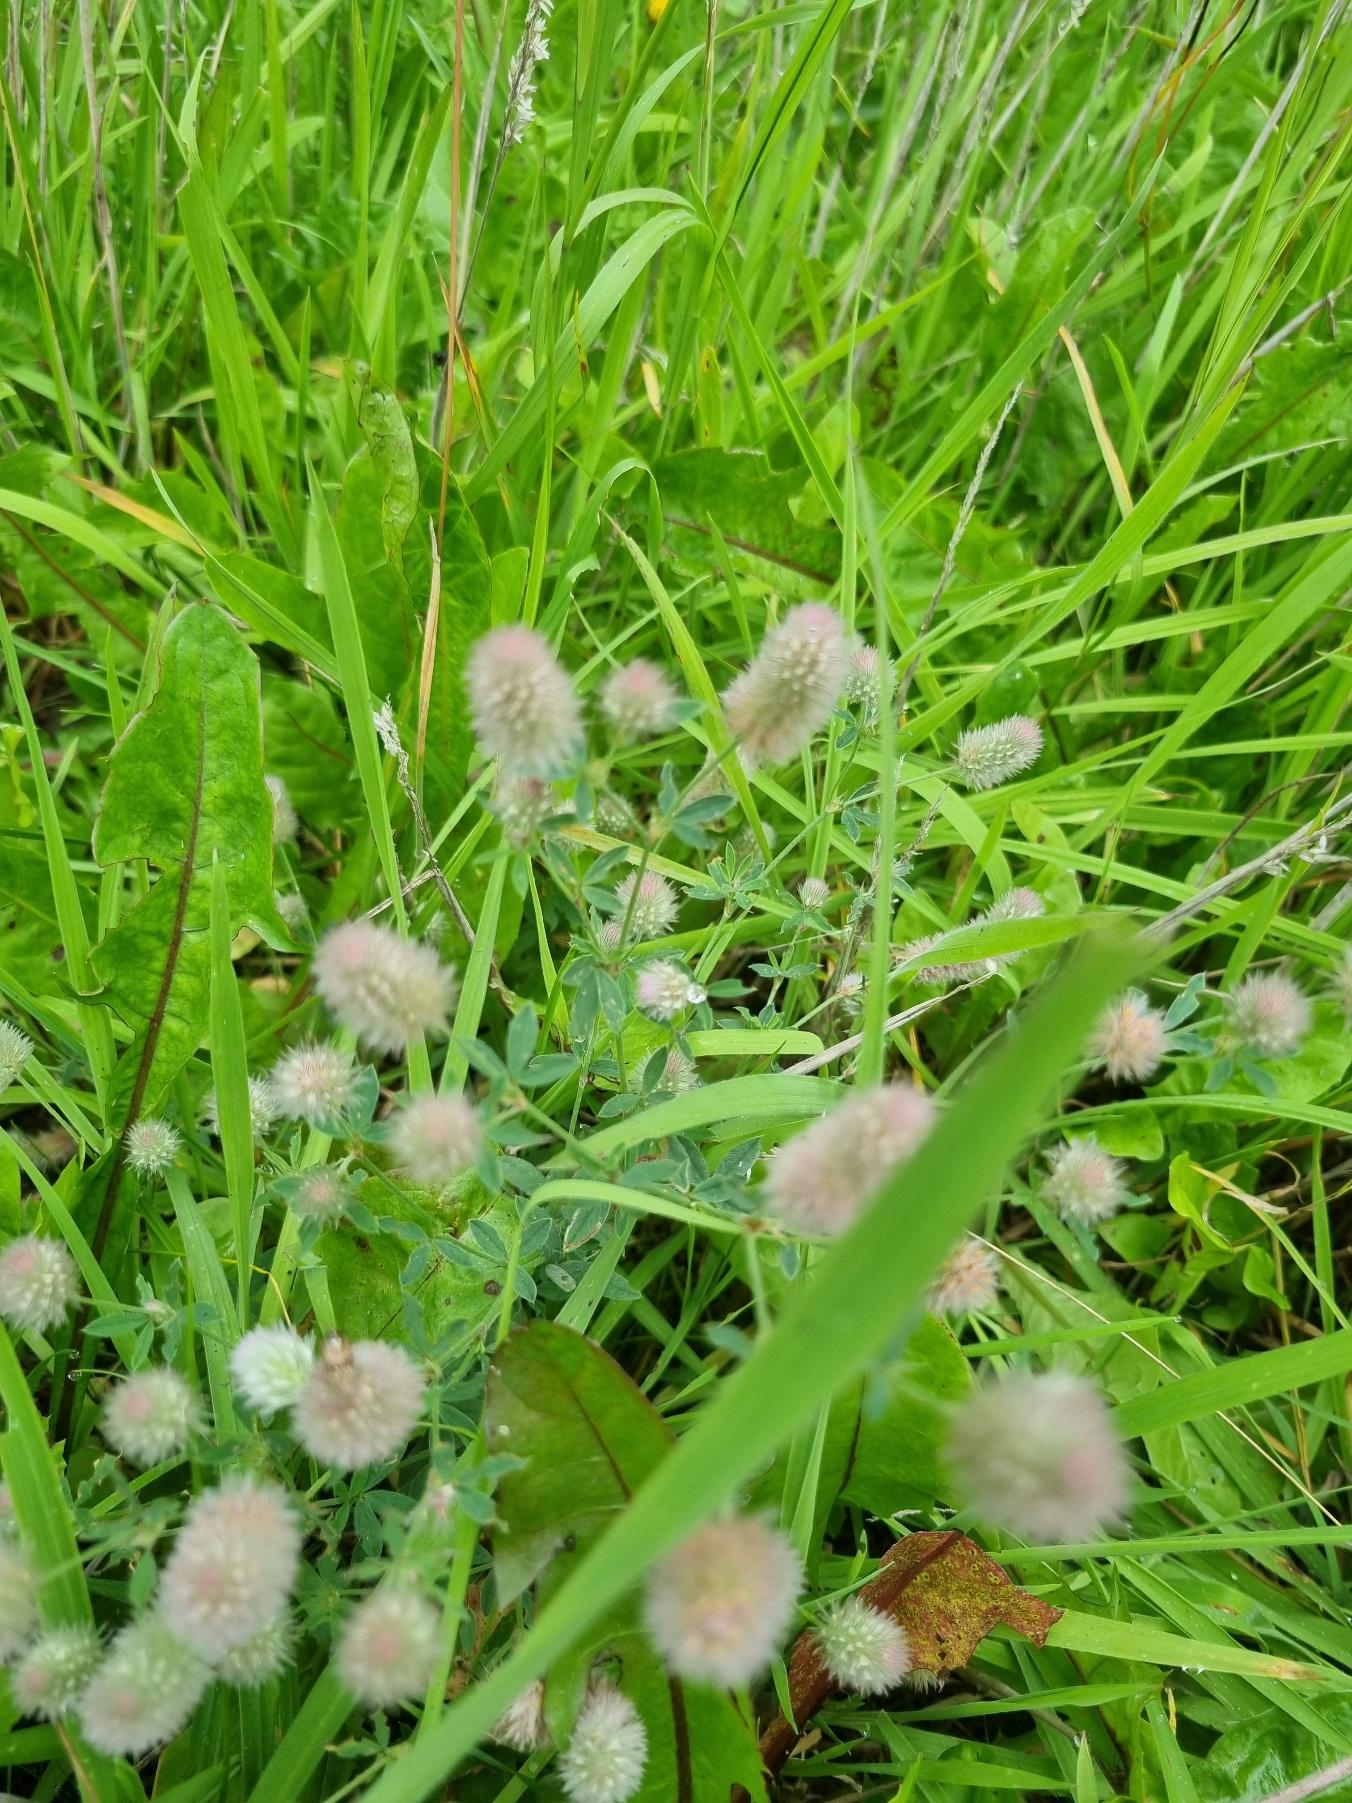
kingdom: Plantae
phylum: Tracheophyta
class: Magnoliopsida
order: Fabales
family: Fabaceae
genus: Trifolium
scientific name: Trifolium arvense
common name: Hare-kløver
